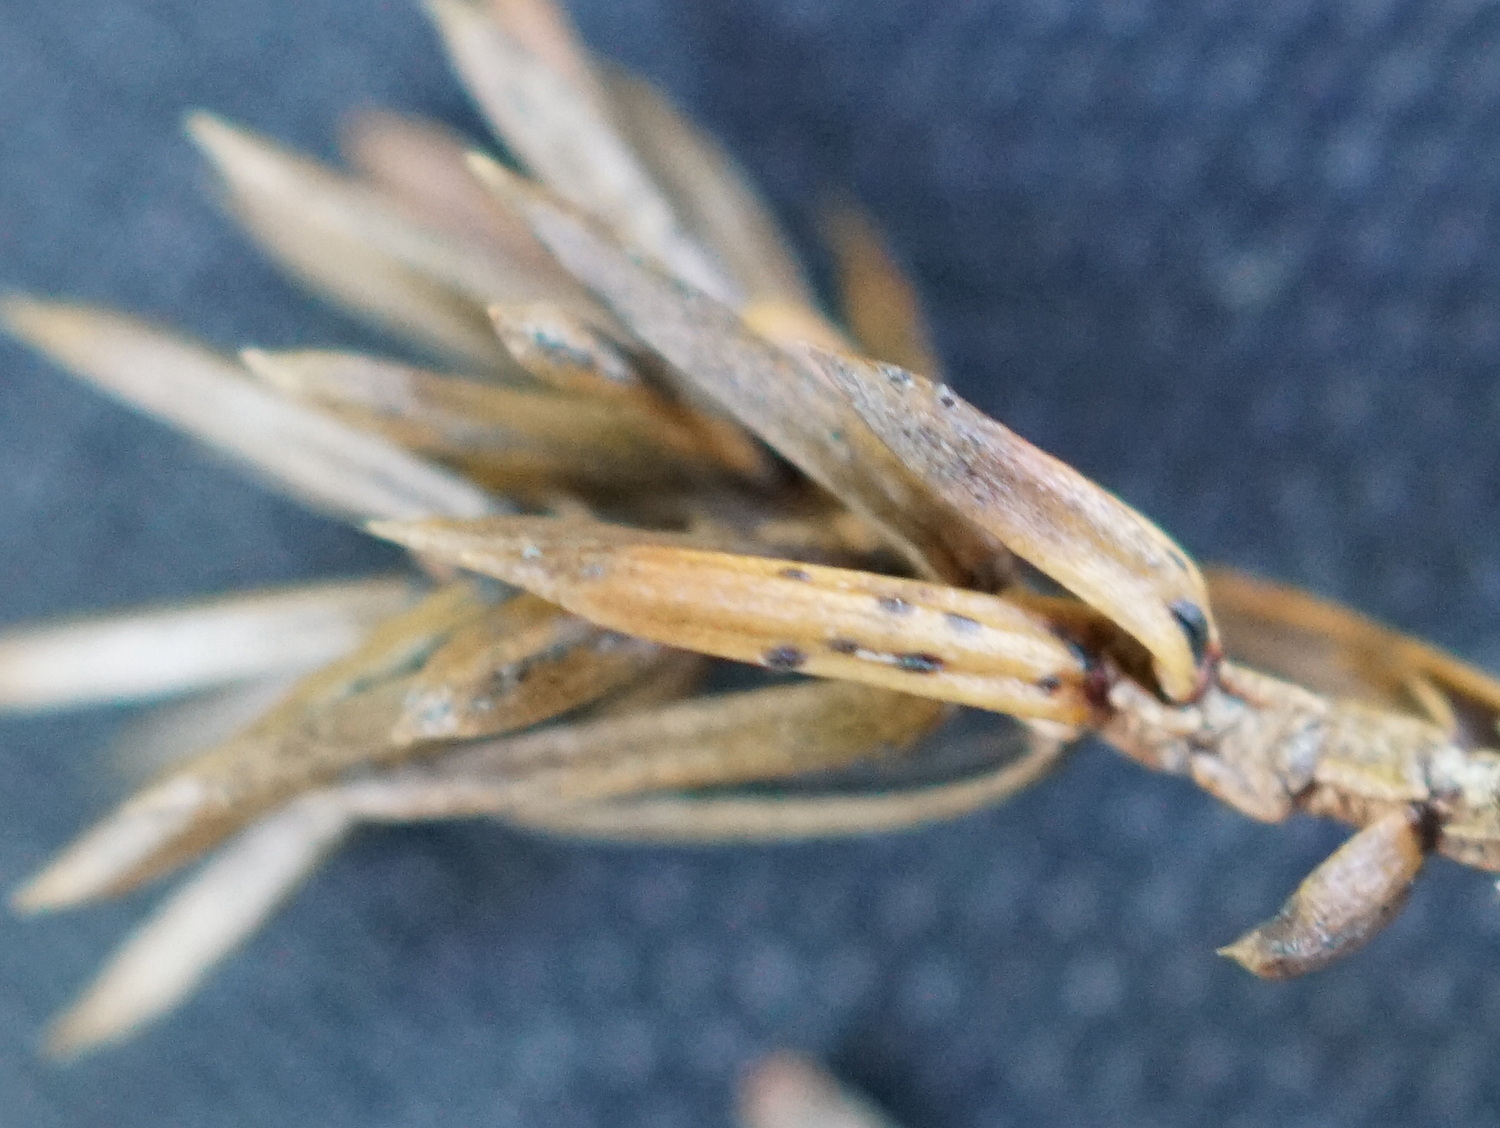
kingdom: Fungi
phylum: Ascomycota
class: Leotiomycetes
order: Rhytismatales
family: Rhytismataceae
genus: Lophodermium
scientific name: Lophodermium juniperinum
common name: ene-fureplet
